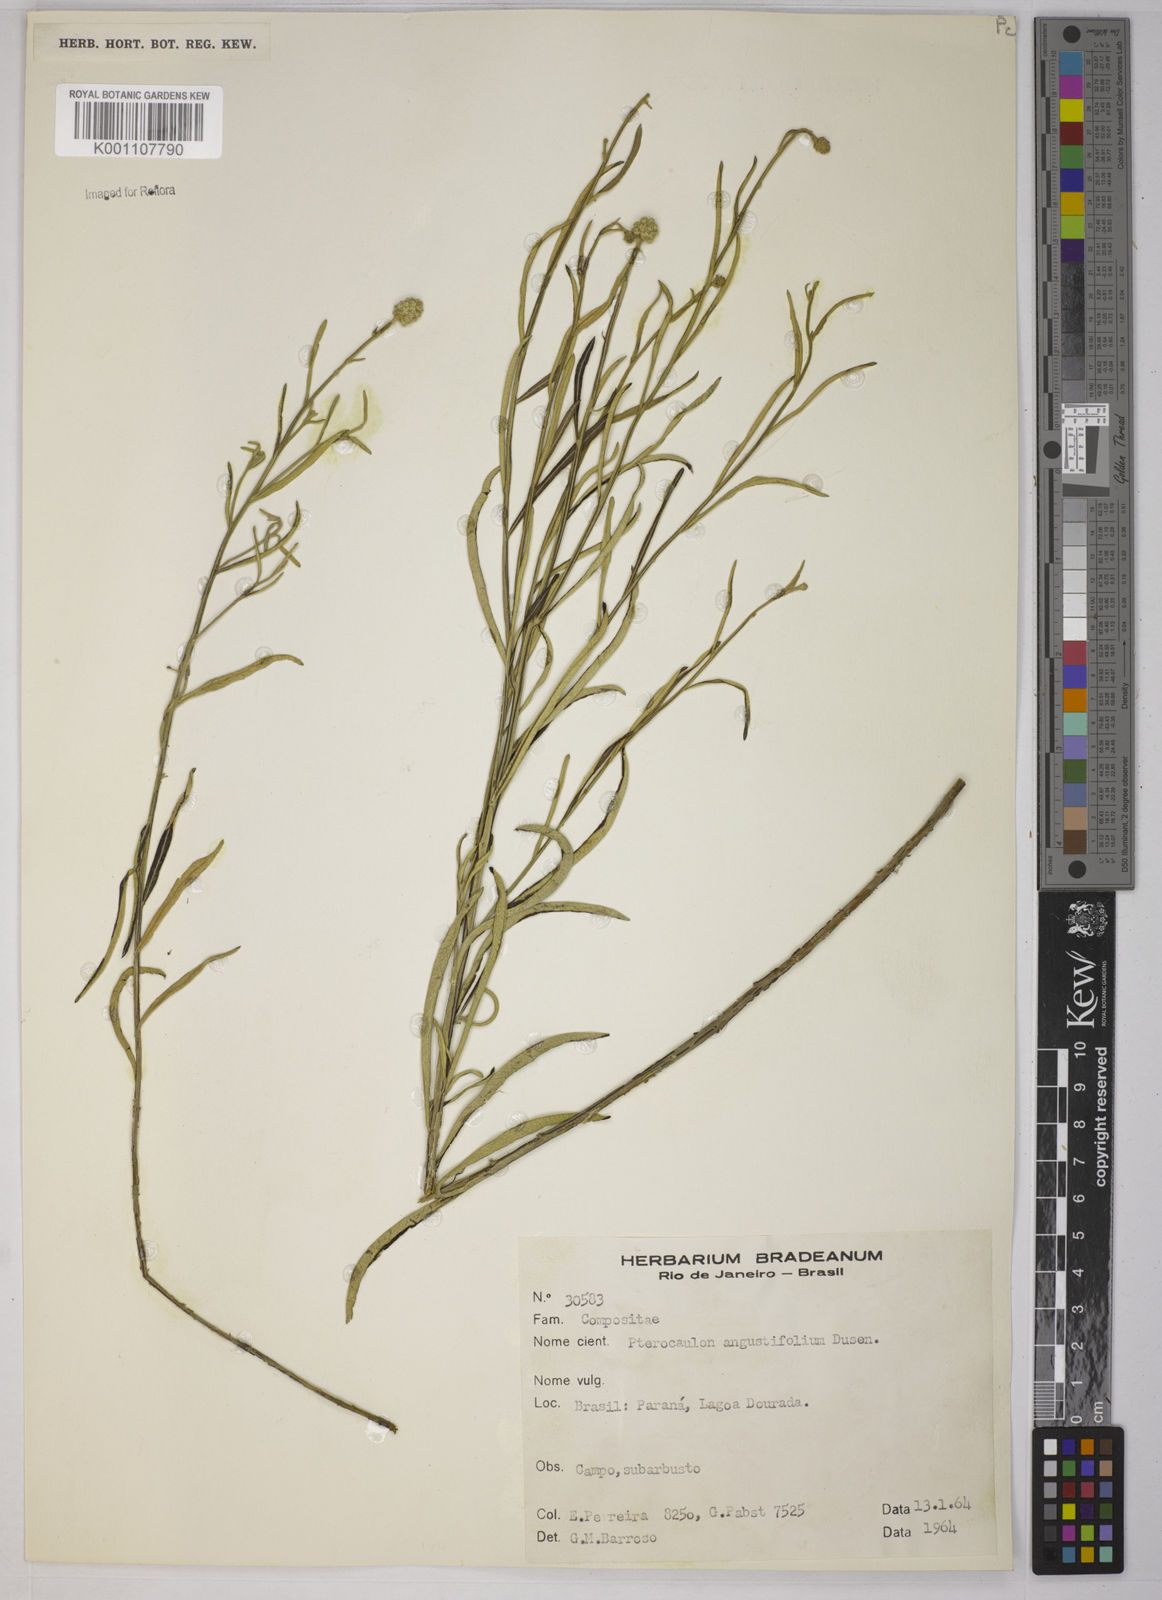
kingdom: Plantae
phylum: Tracheophyta
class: Magnoliopsida
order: Asterales
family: Asteraceae
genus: Pterocaulon
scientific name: Pterocaulon angustifolium
